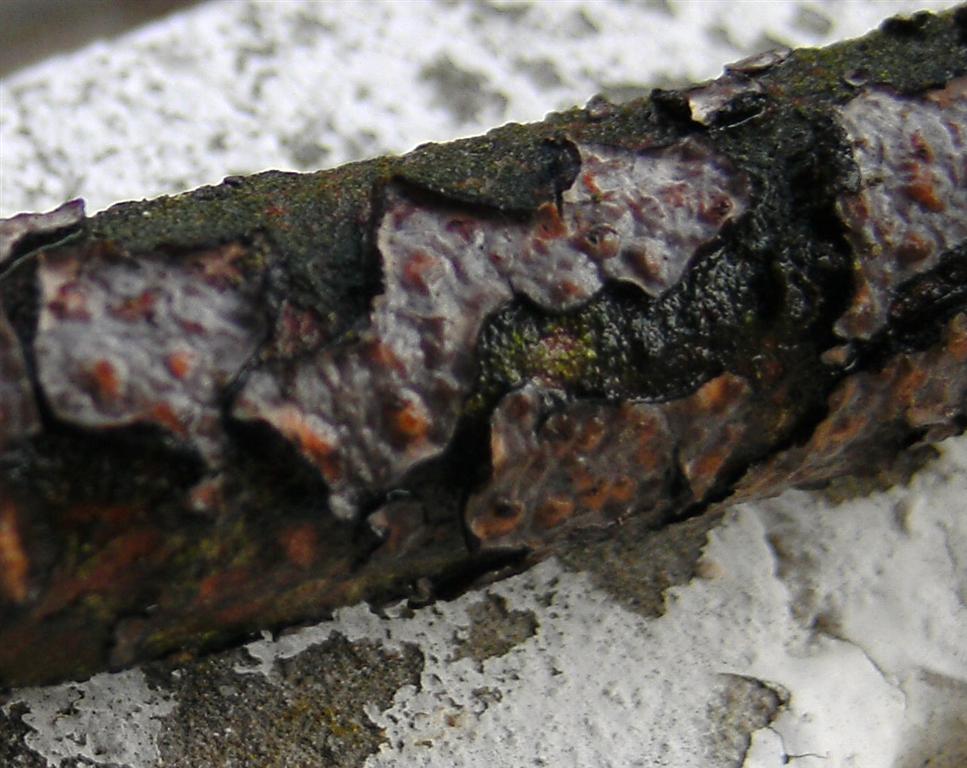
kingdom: Fungi
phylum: Basidiomycota
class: Agaricomycetes
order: Russulales
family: Peniophoraceae
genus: Peniophora
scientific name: Peniophora quercina
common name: ege-voksskind
